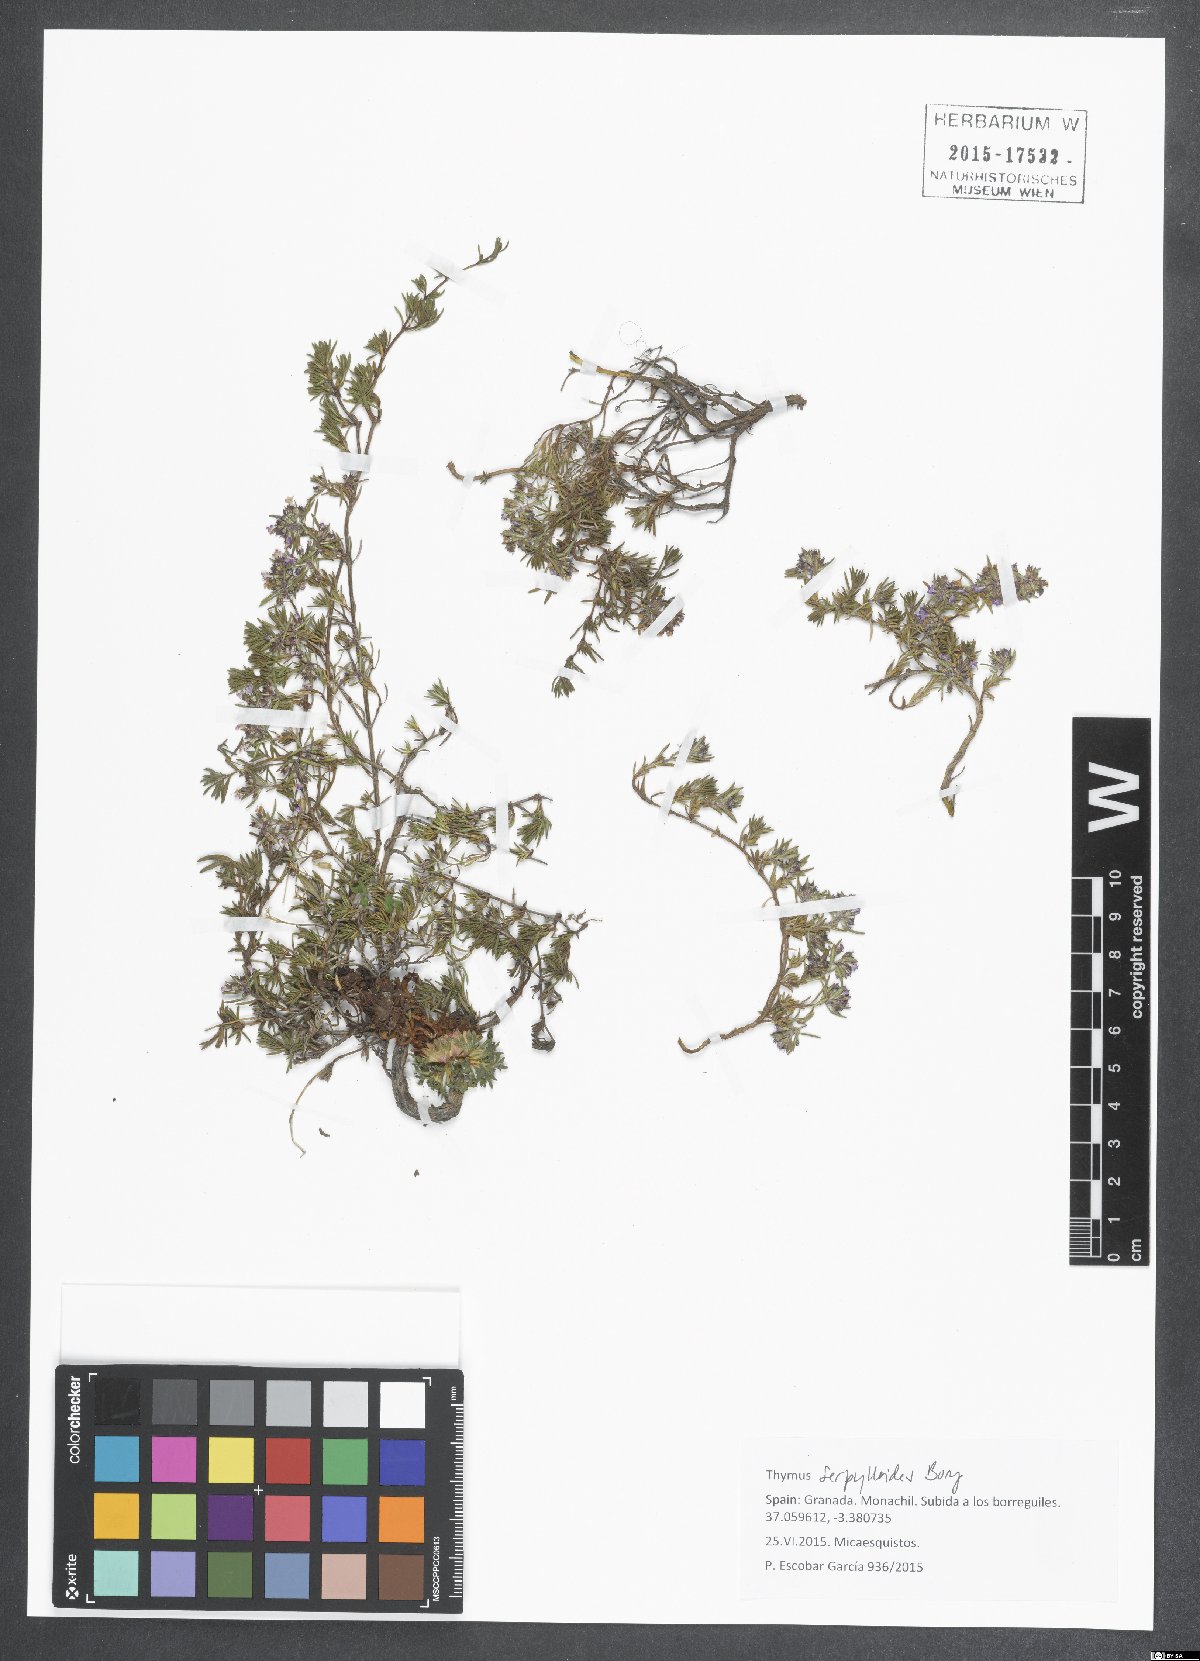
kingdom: Plantae
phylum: Tracheophyta
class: Magnoliopsida
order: Lamiales
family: Lamiaceae
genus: Thymus
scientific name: Thymus serpylloides
